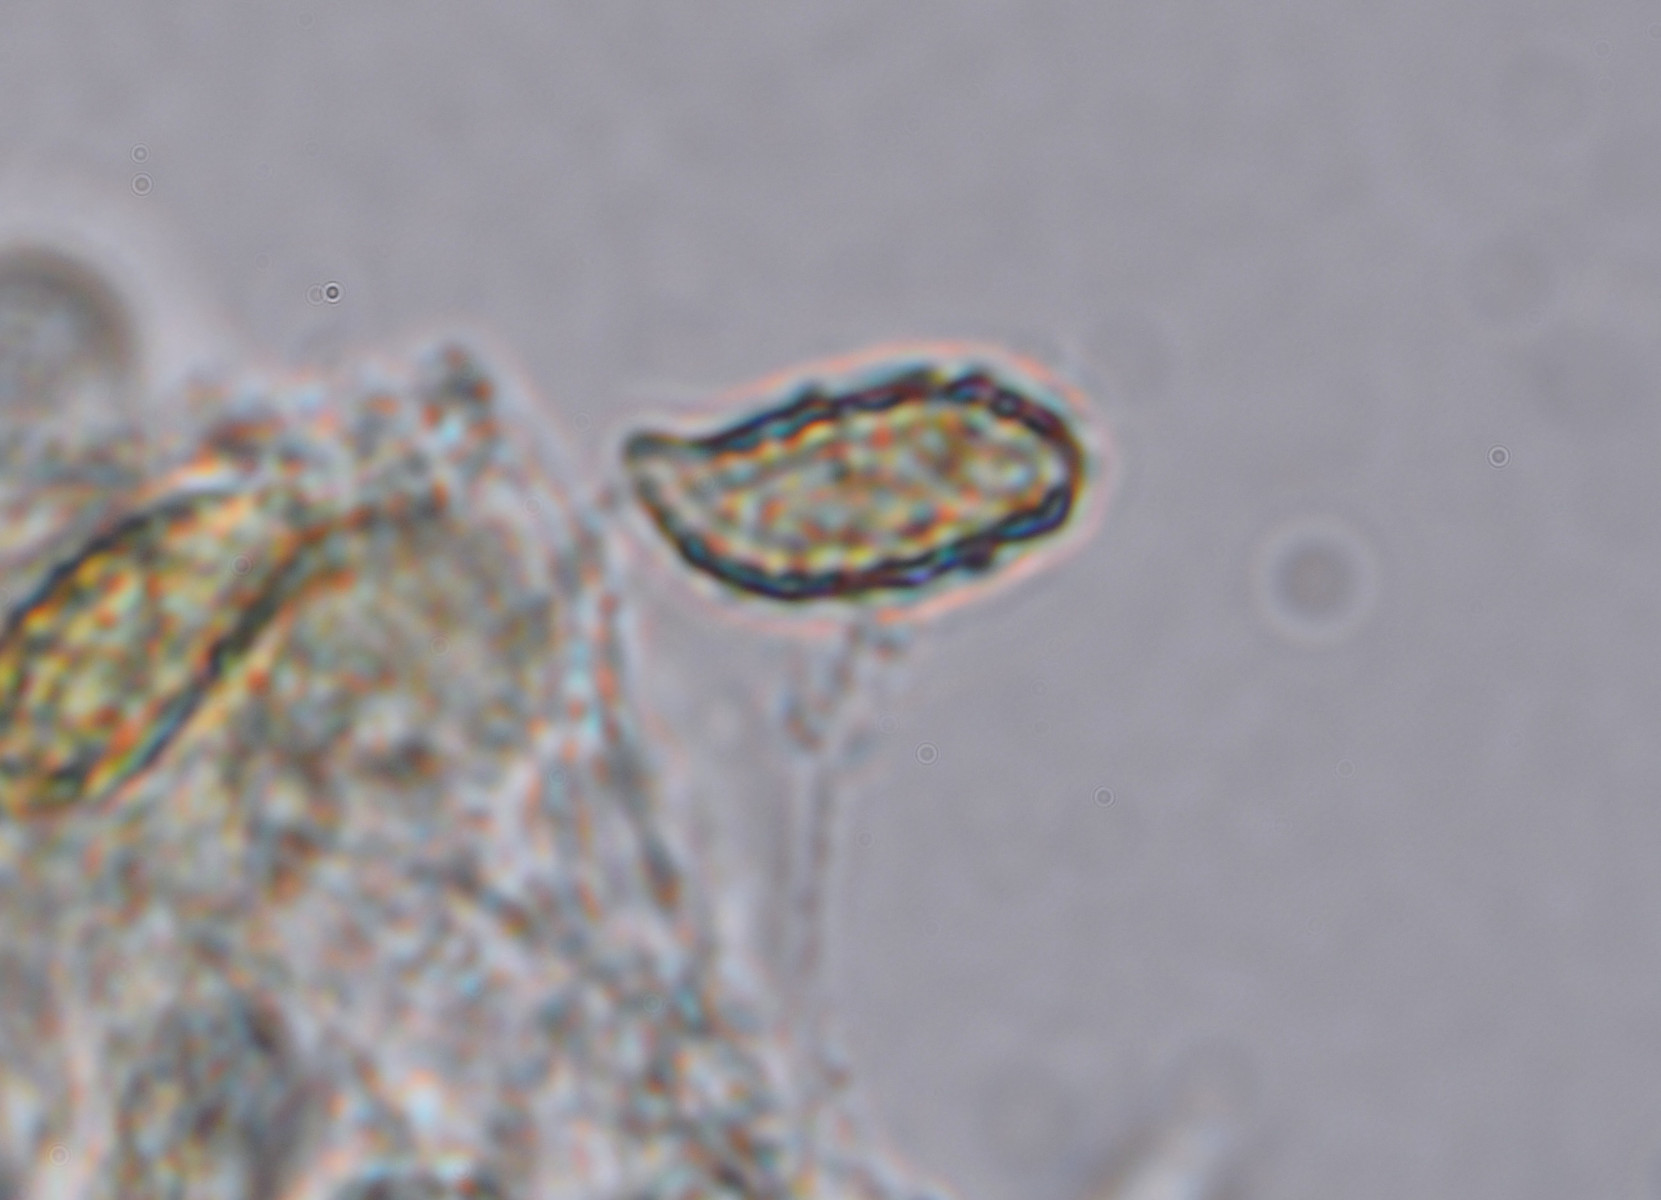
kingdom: Fungi
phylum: Basidiomycota
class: Agaricomycetes
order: Gomphales
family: Gomphaceae
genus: Ramaria
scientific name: Ramaria fumigata
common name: violet koralsvamp
